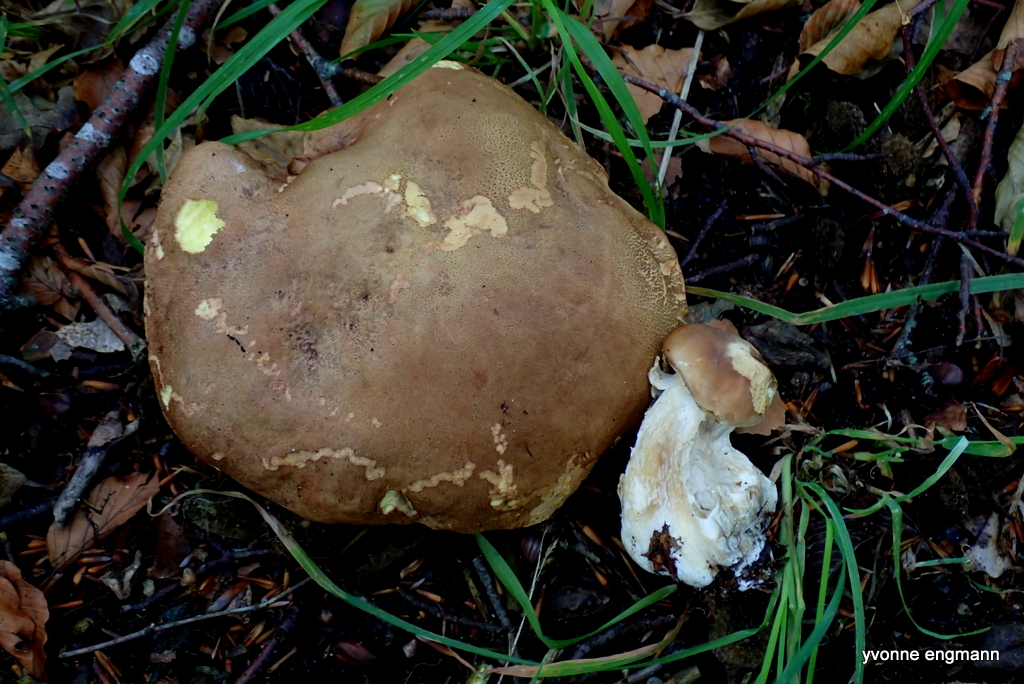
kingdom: Fungi
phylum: Basidiomycota
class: Agaricomycetes
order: Boletales
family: Boletaceae
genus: Butyriboletus
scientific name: Butyriboletus appendiculatus
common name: tenstokket rørhat
